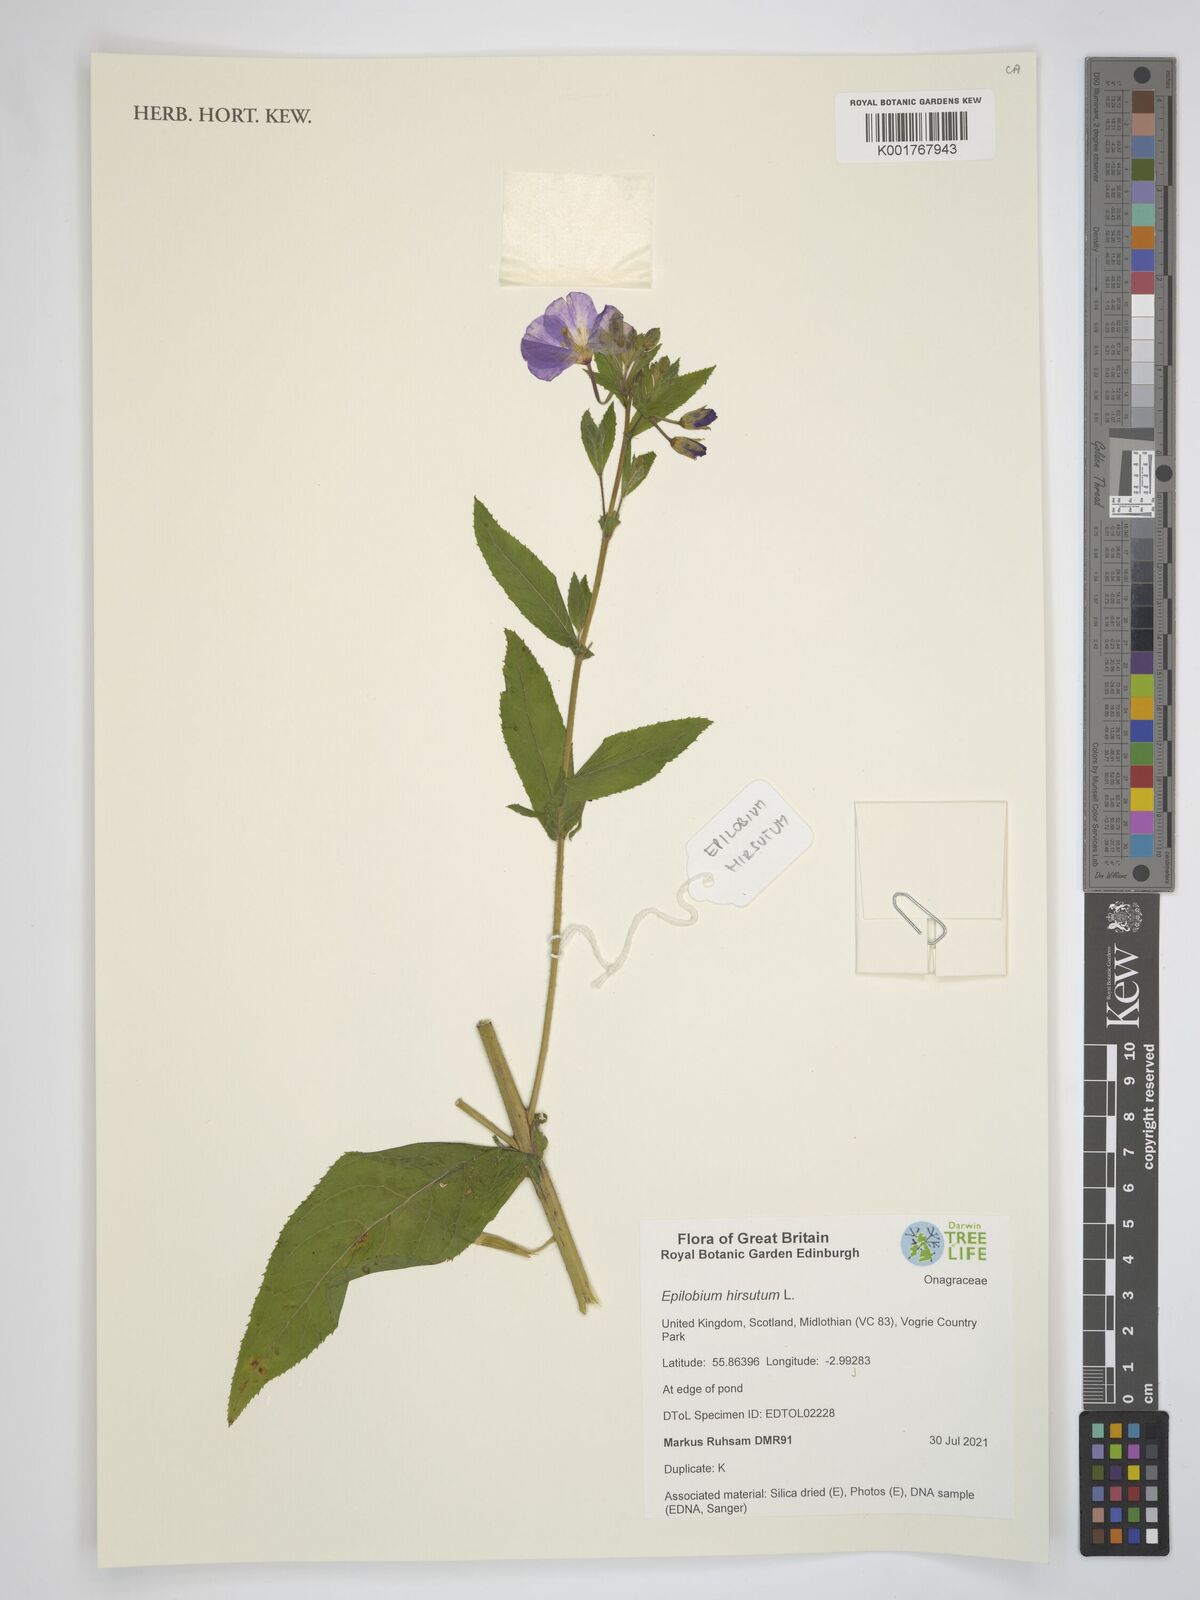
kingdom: Plantae
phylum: Tracheophyta
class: Magnoliopsida
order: Myrtales
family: Onagraceae
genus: Epilobium
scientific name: Epilobium hirsutum
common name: Great willowherb
